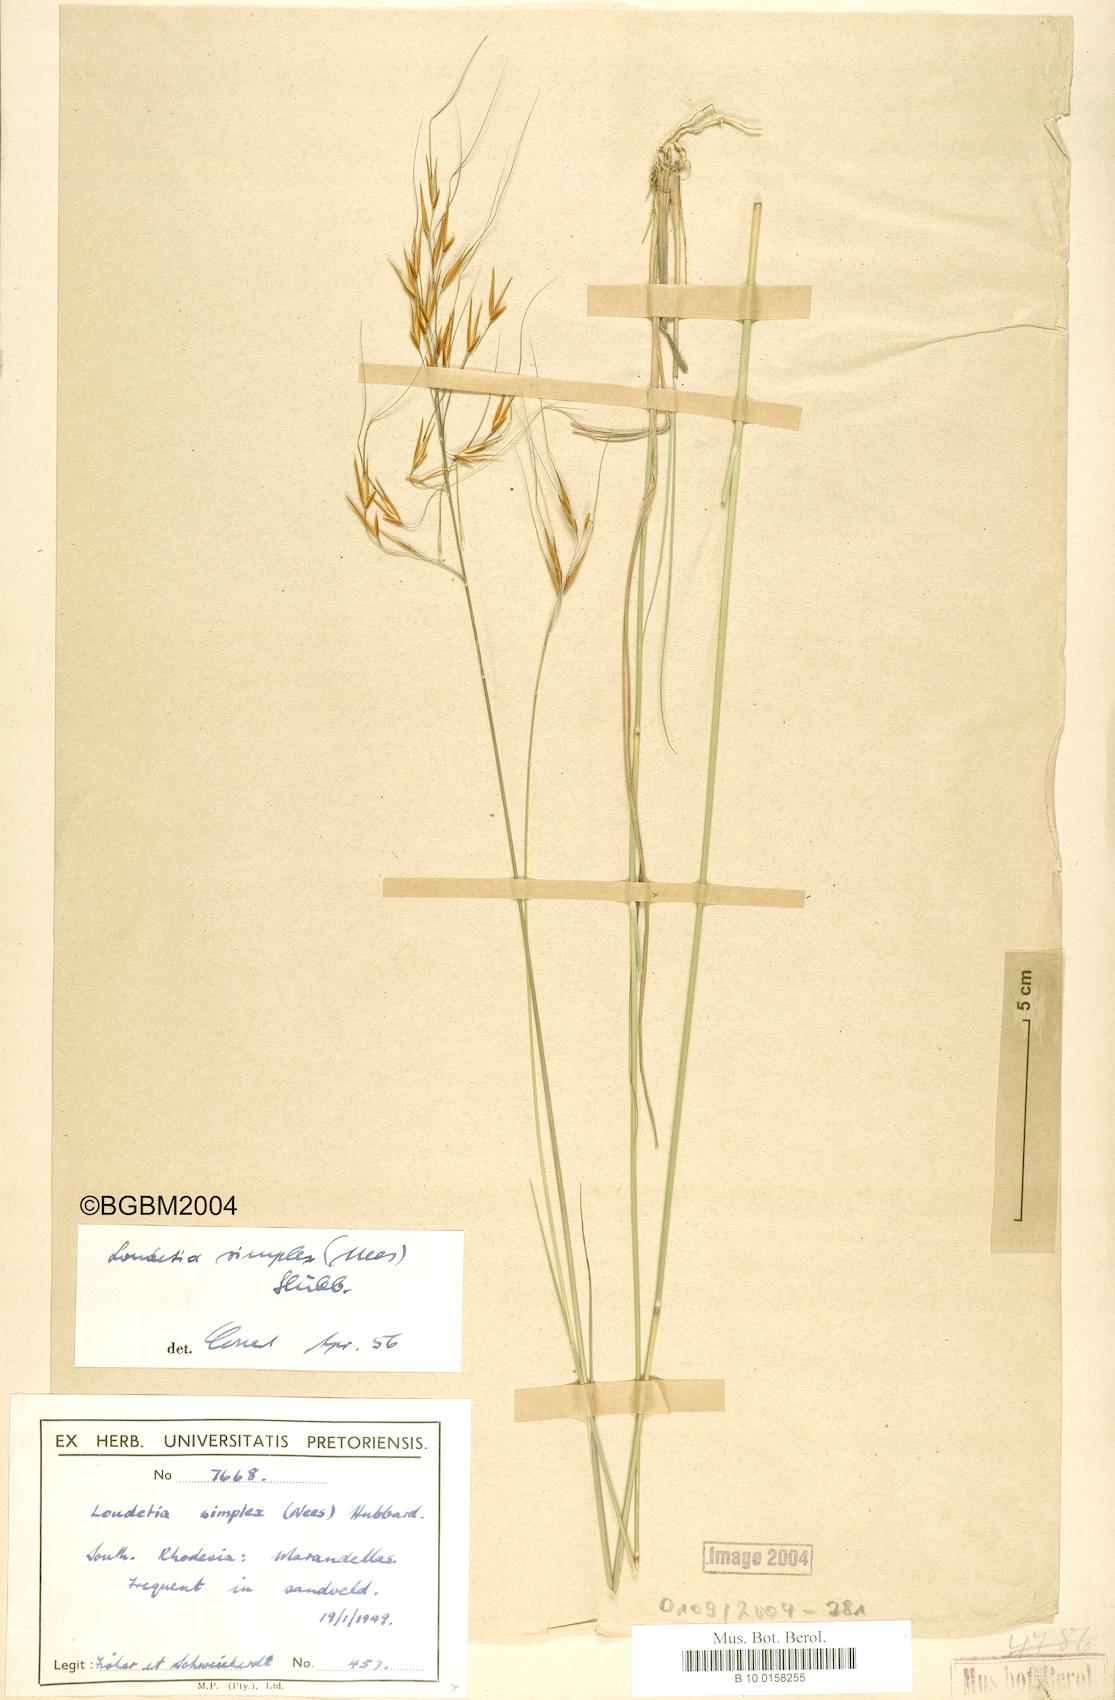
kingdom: Plantae
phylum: Tracheophyta
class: Liliopsida
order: Poales
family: Poaceae
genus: Loudetia
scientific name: Loudetia simplex
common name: Common russet grass
